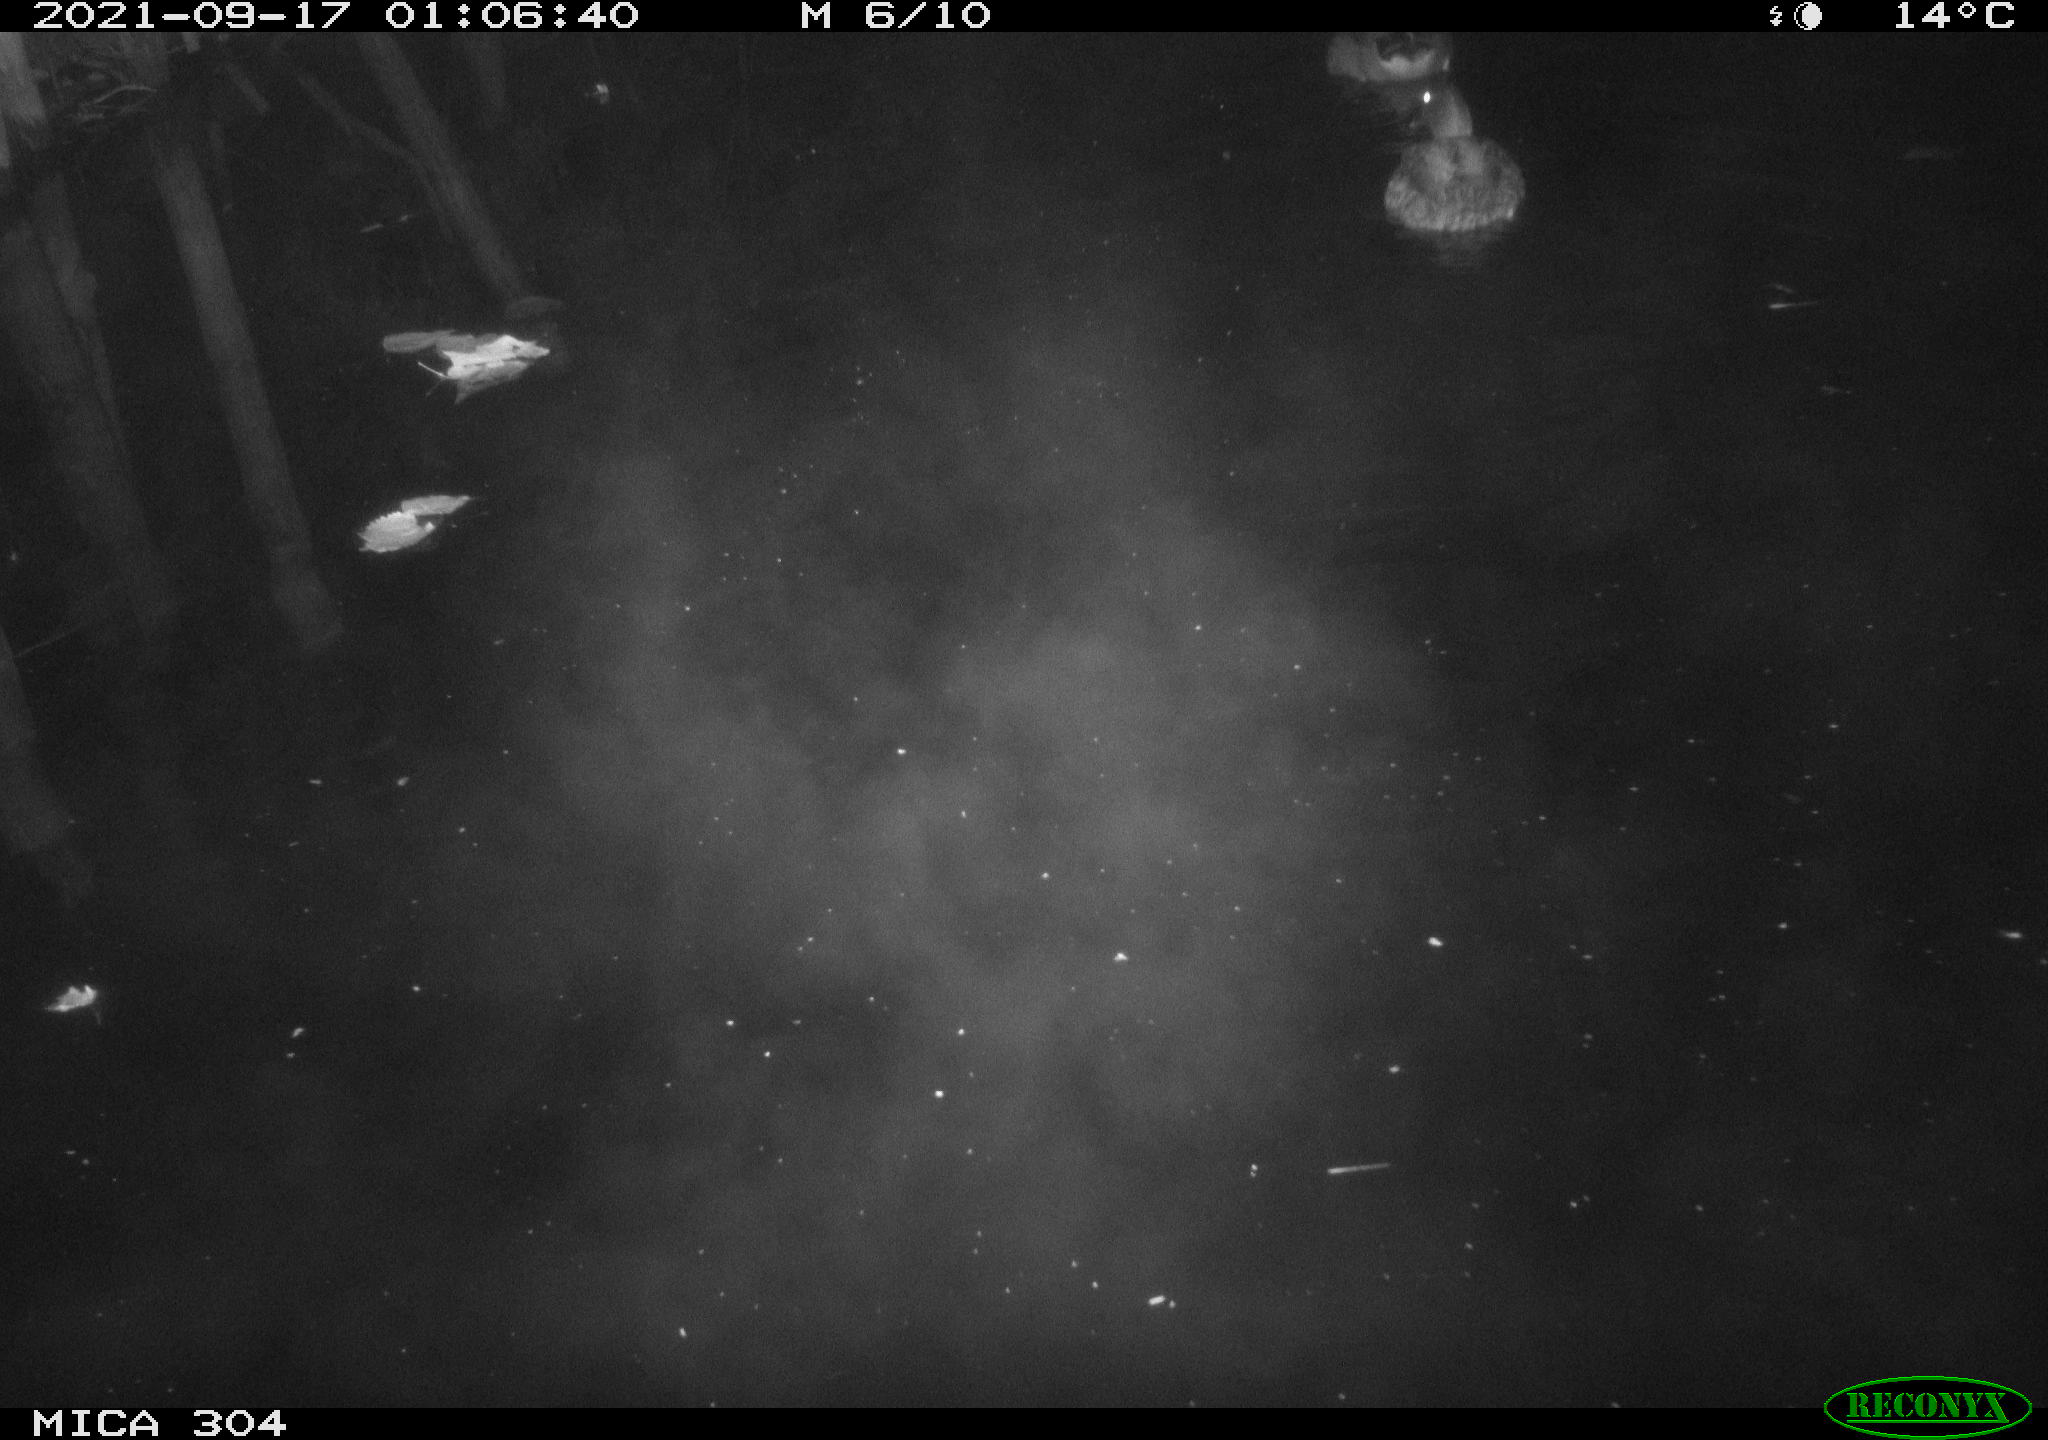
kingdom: Animalia
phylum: Chordata
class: Aves
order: Anseriformes
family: Anatidae
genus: Anas
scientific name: Anas platyrhynchos
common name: Mallard
